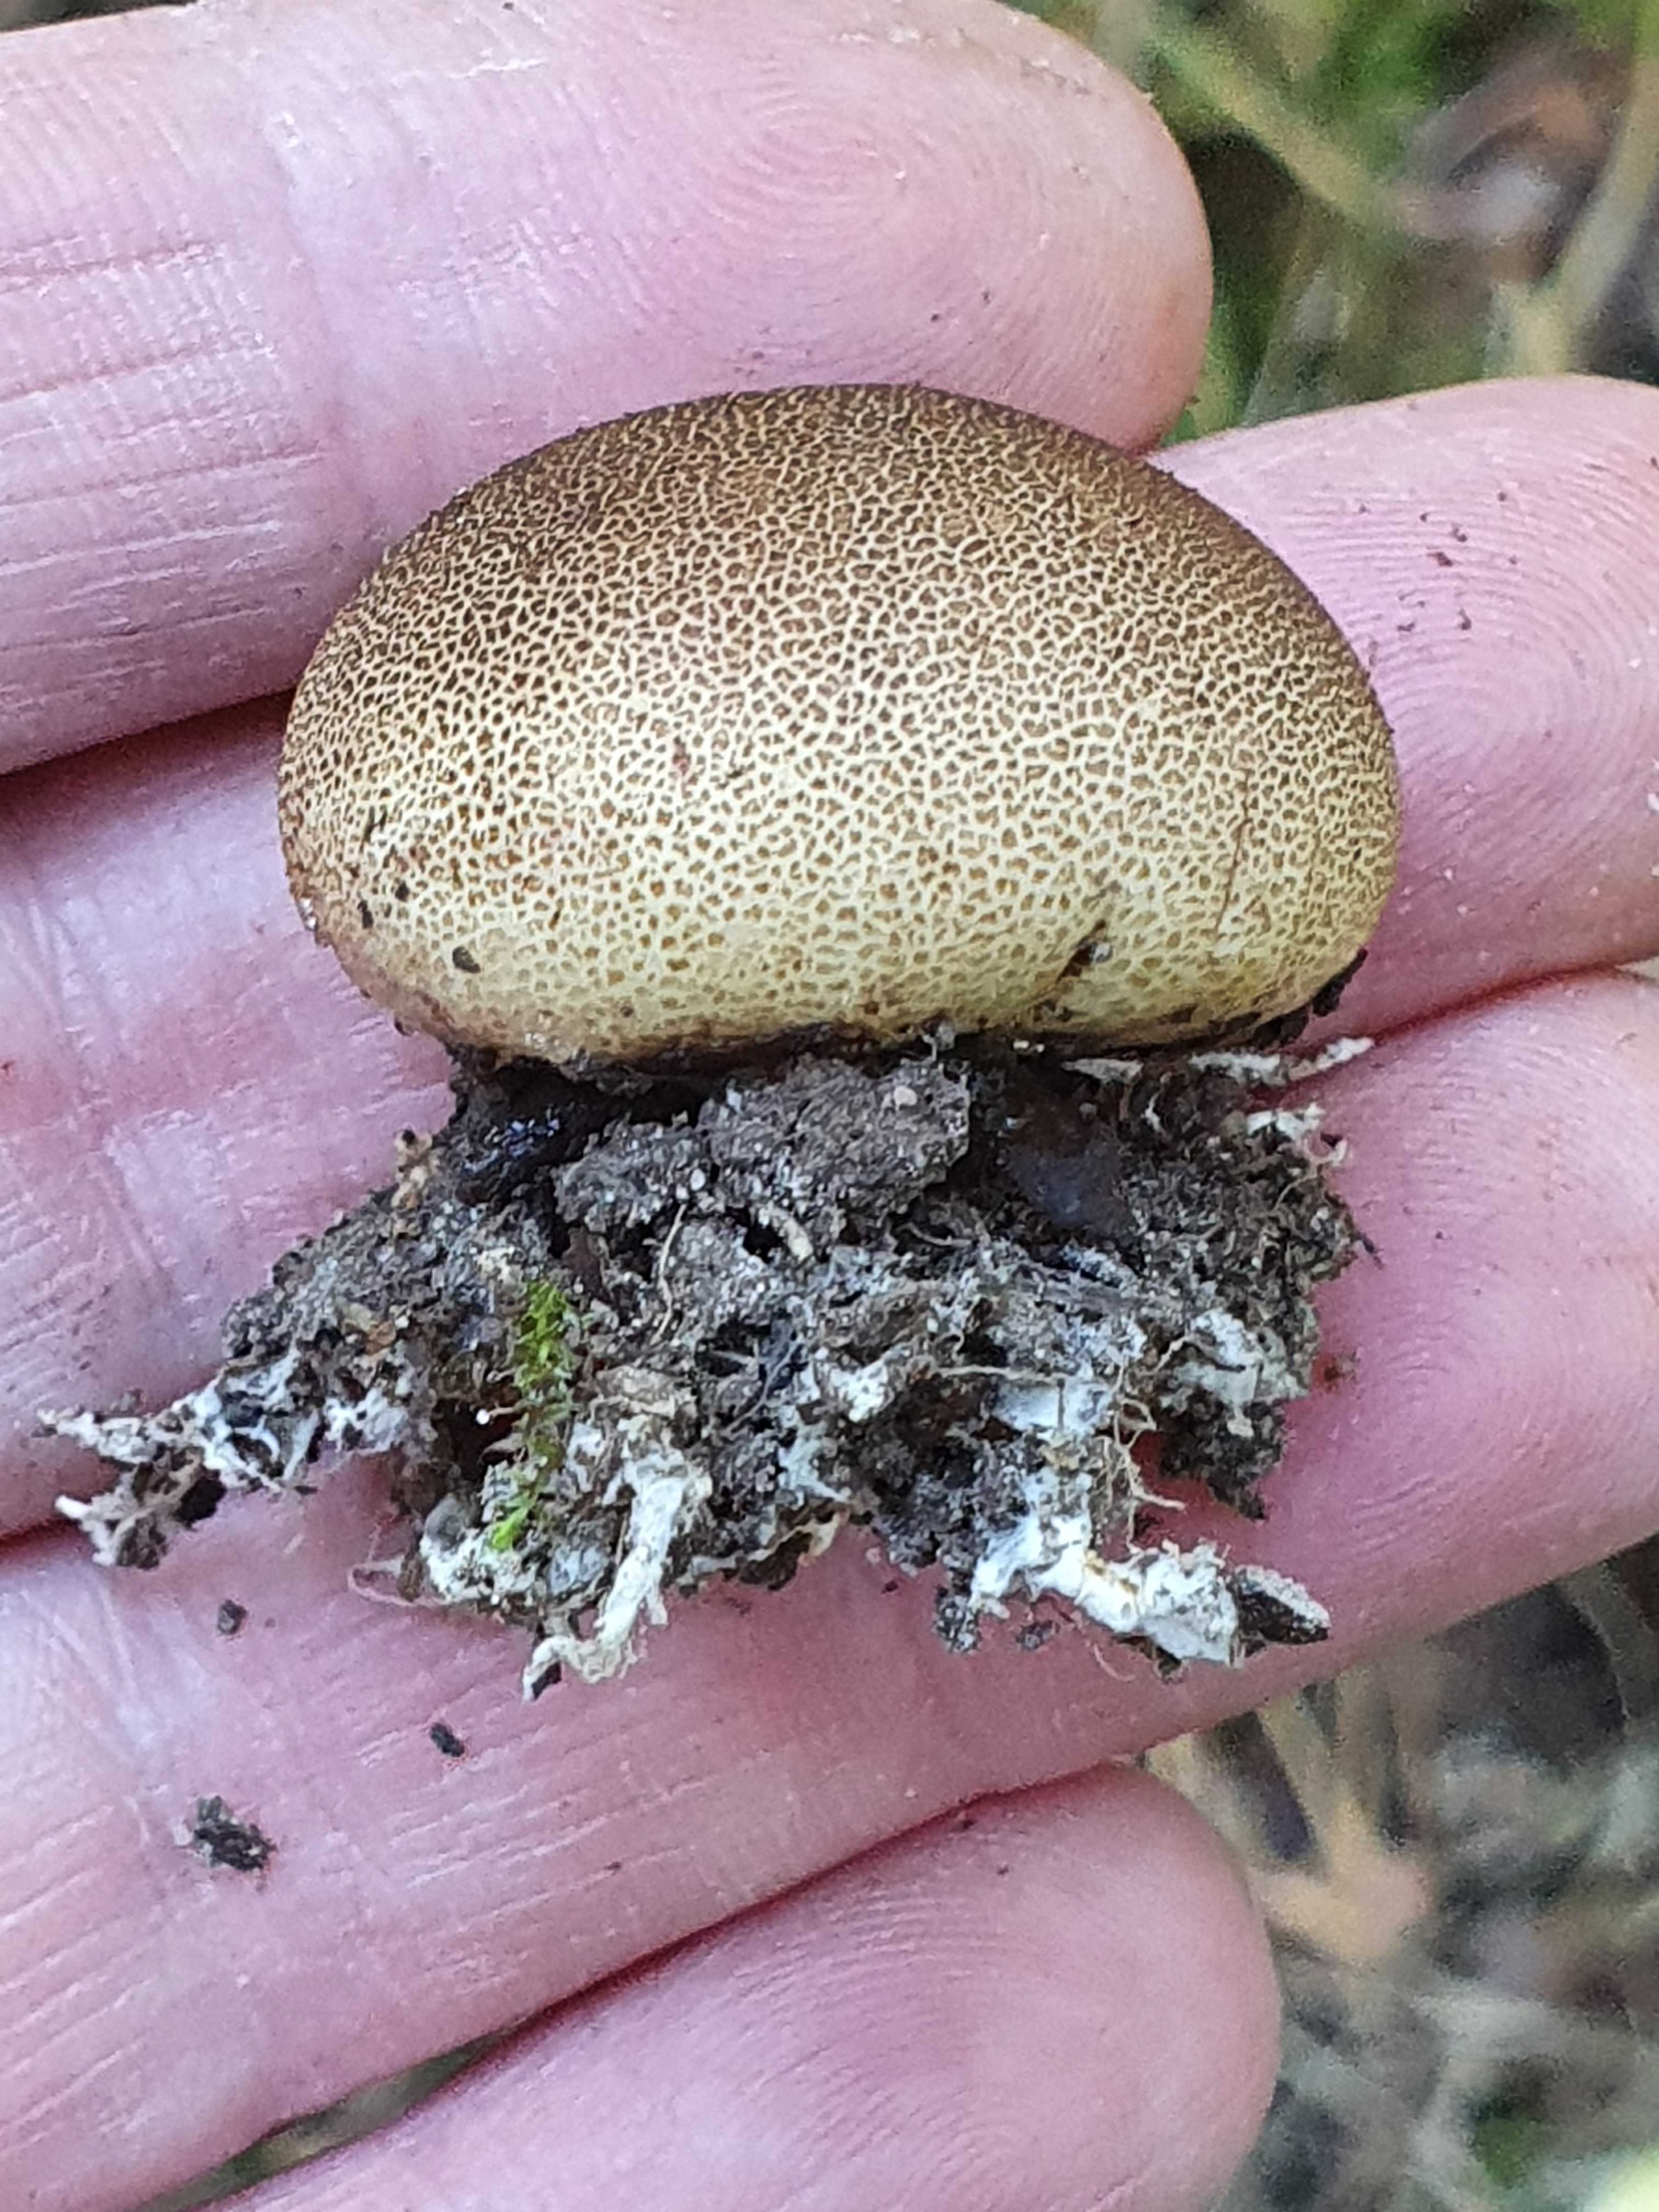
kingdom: Fungi
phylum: Basidiomycota
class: Agaricomycetes
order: Boletales
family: Sclerodermataceae
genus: Scleroderma
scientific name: Scleroderma areolatum
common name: plettet bruskbold
